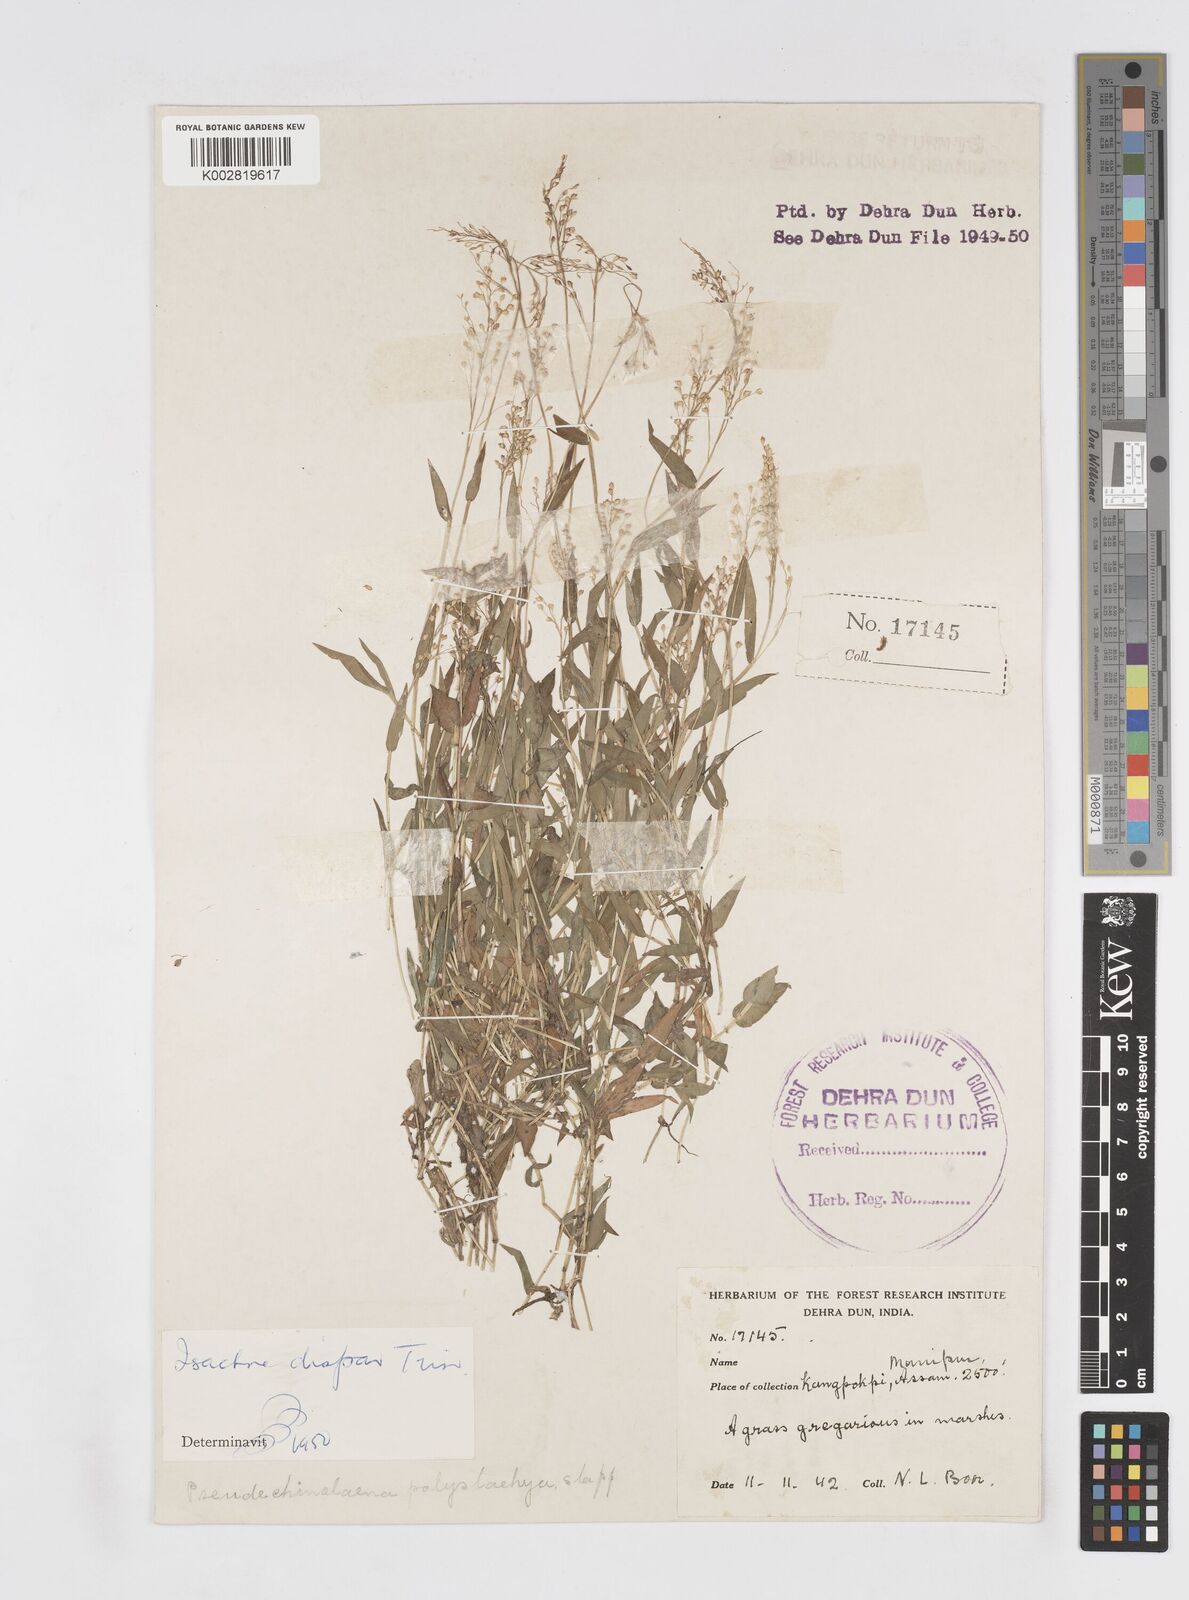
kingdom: Plantae
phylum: Tracheophyta
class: Liliopsida
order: Poales
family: Poaceae
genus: Isachne
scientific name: Isachne globosa
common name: Swamp millet
